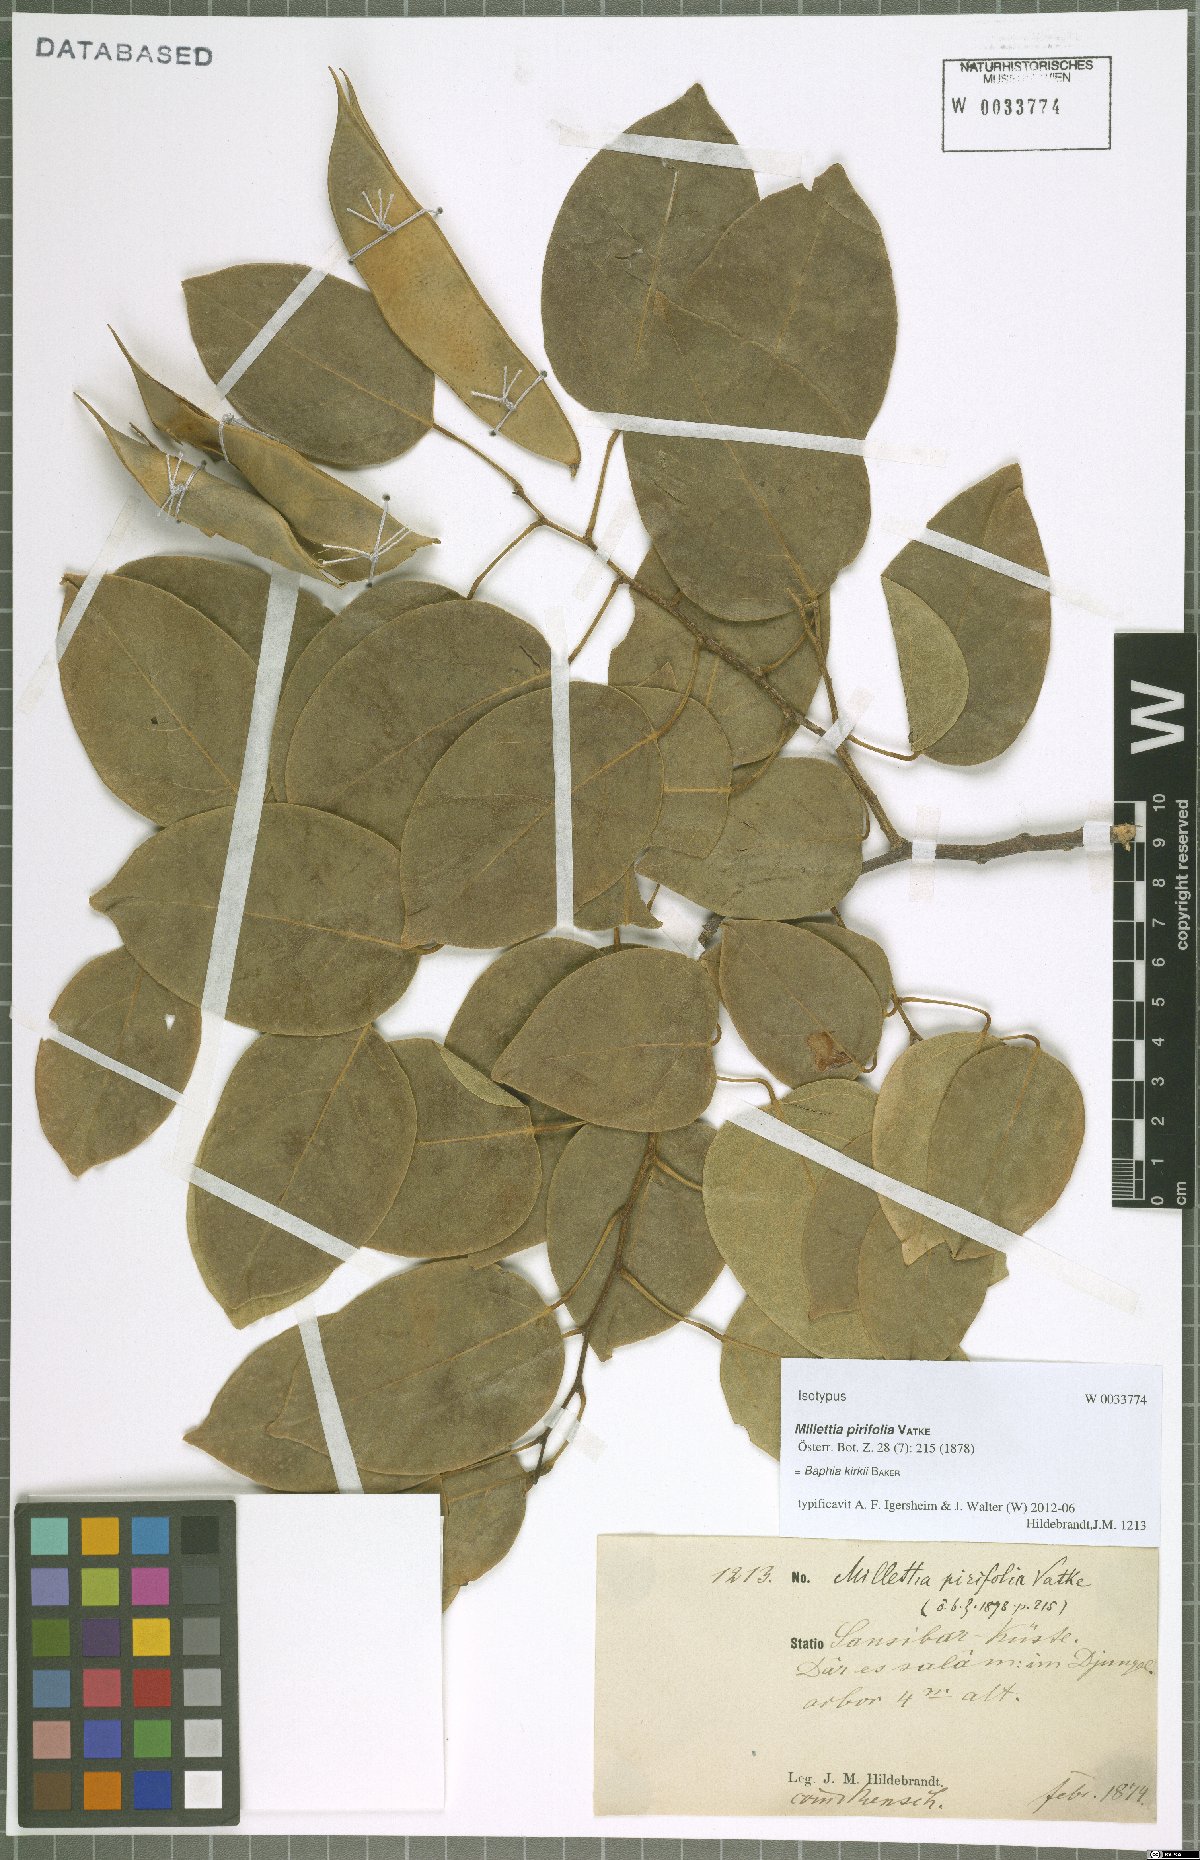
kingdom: Plantae
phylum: Tracheophyta
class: Magnoliopsida
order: Fabales
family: Fabaceae
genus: Baphia
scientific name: Baphia kirkii
